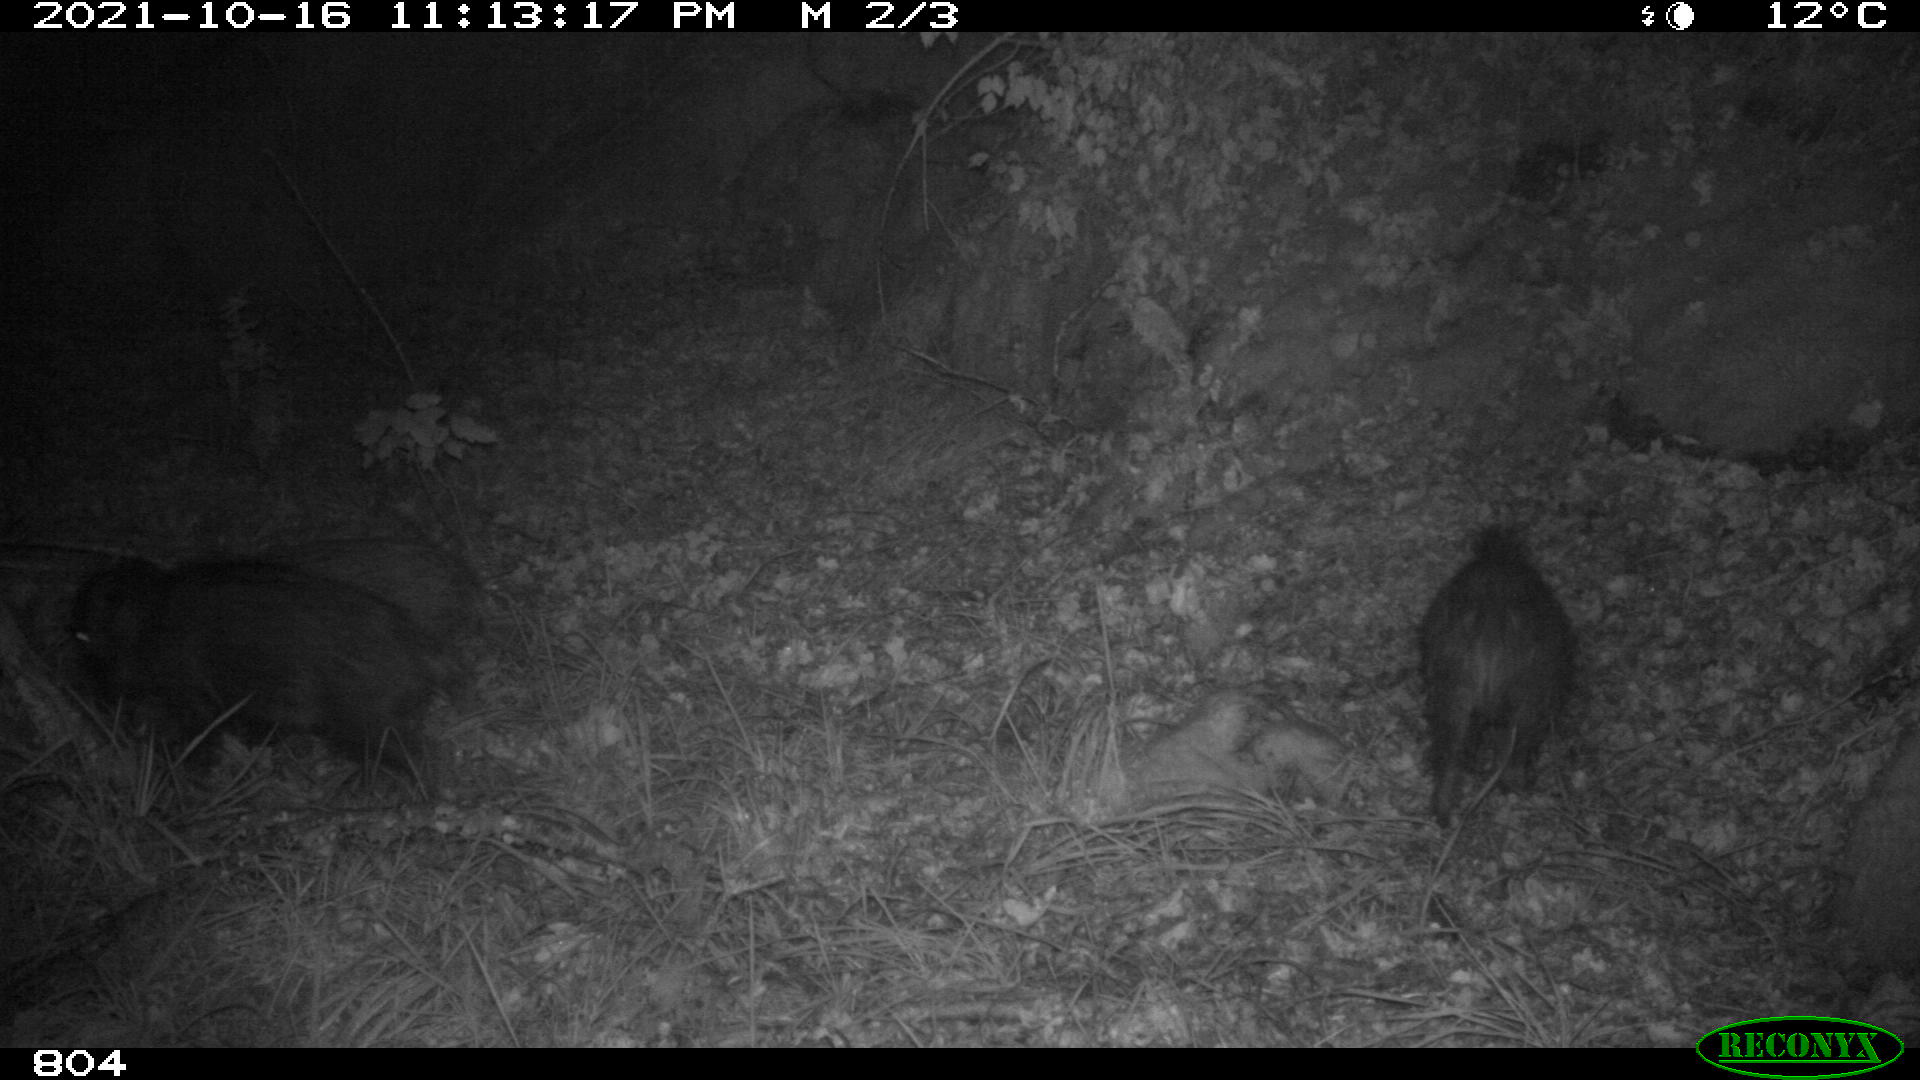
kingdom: Animalia
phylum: Chordata
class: Mammalia
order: Artiodactyla
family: Suidae
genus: Sus
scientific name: Sus scrofa
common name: Wild boar
